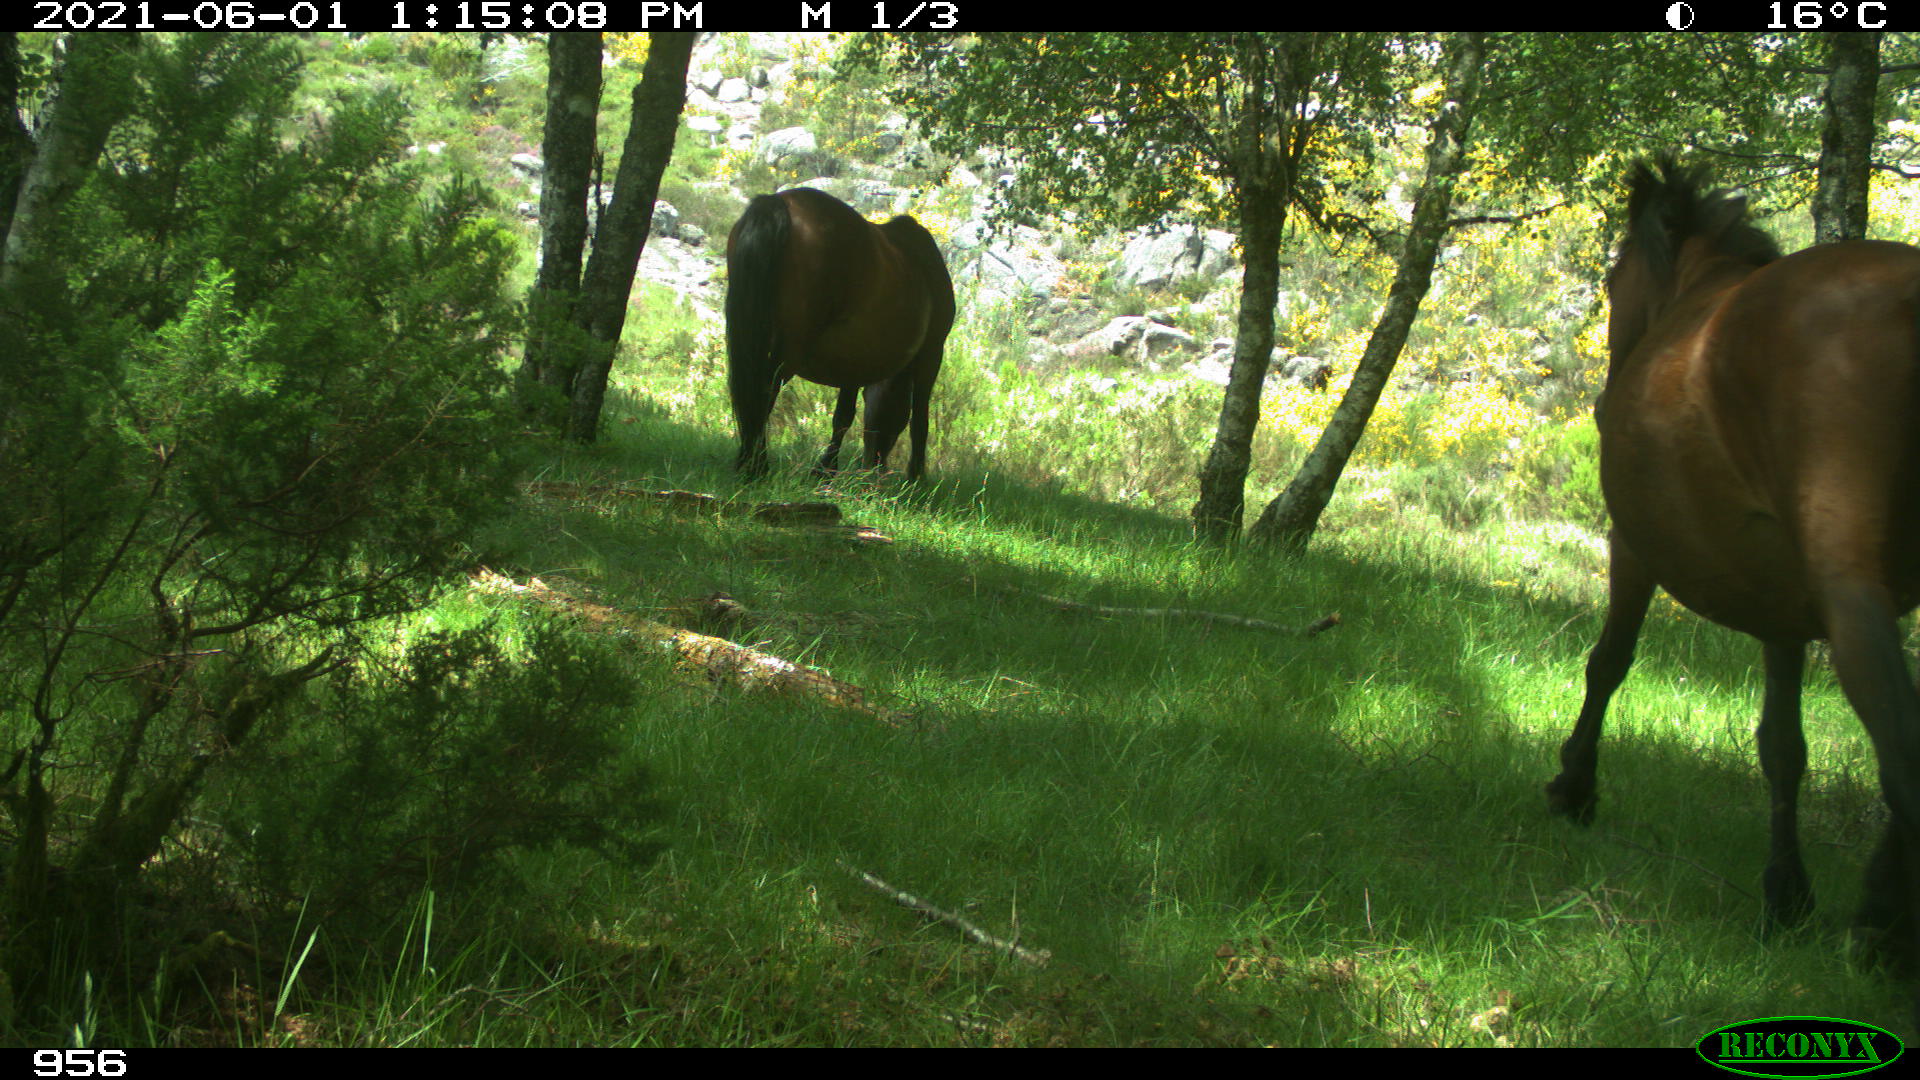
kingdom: Animalia
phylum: Chordata
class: Mammalia
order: Perissodactyla
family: Equidae
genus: Equus
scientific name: Equus caballus
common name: Horse
